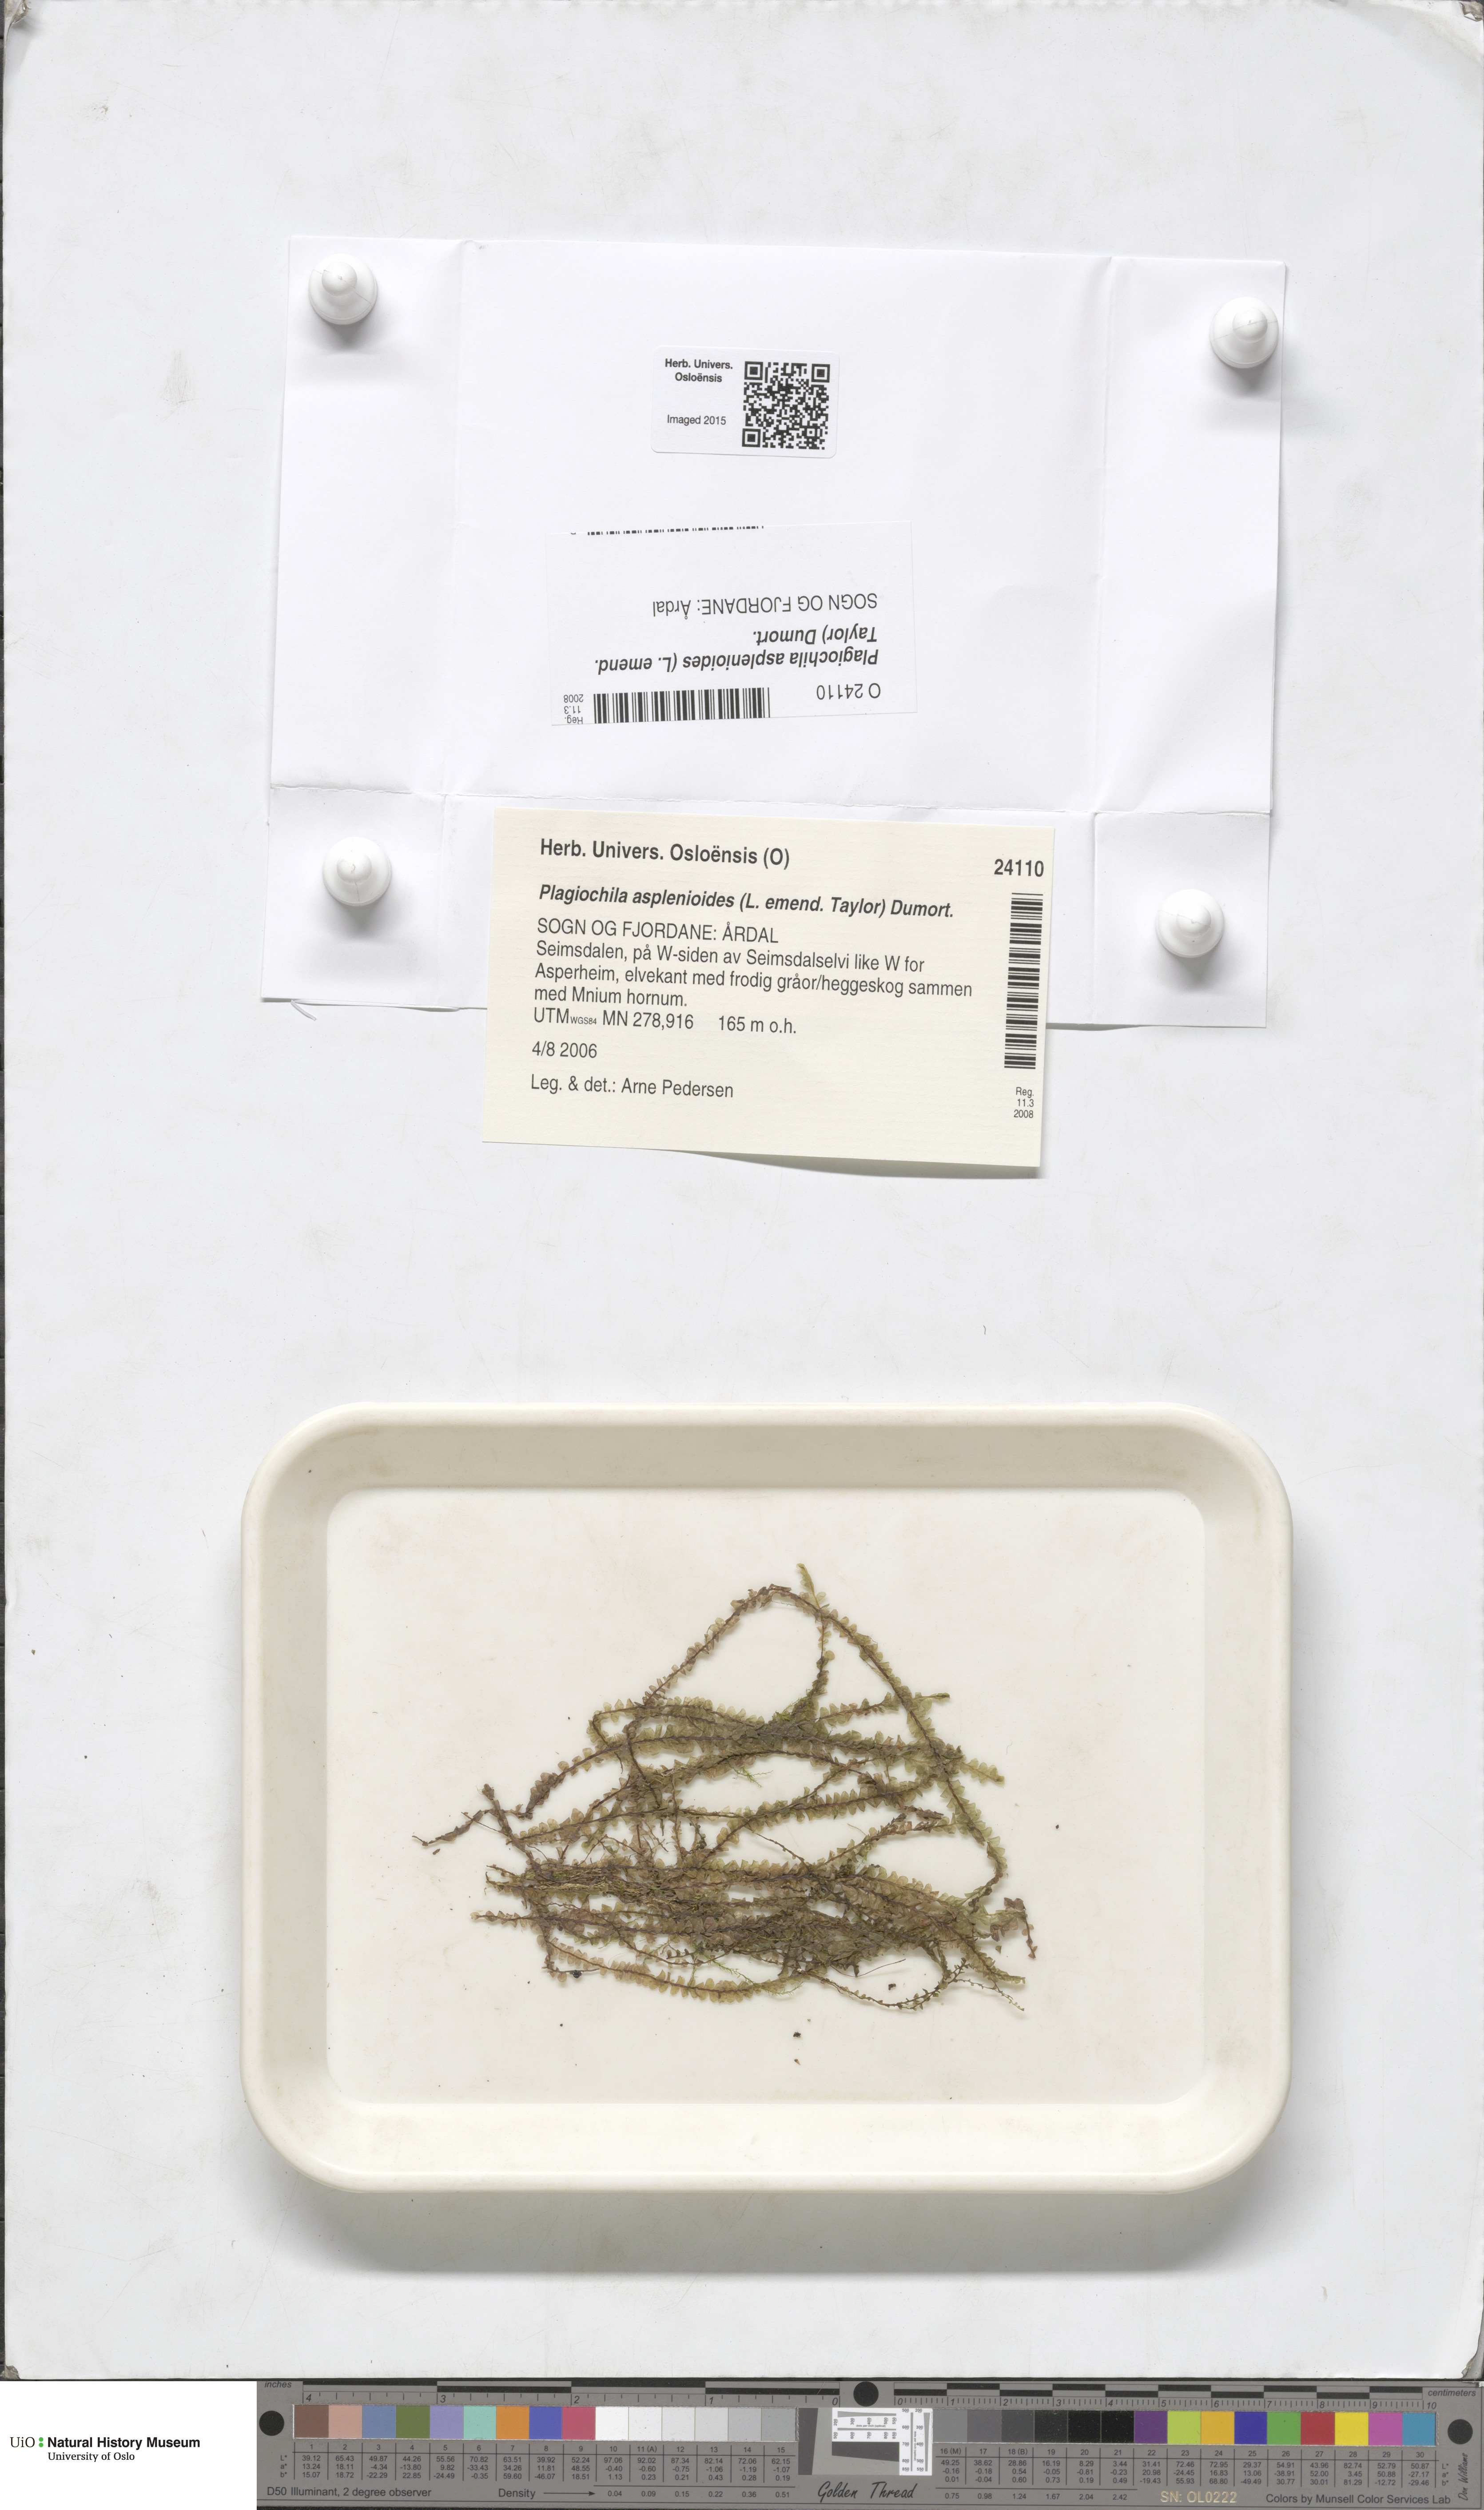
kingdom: Plantae
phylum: Marchantiophyta
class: Jungermanniopsida
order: Jungermanniales
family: Plagiochilaceae
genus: Plagiochila
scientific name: Plagiochila asplenioides
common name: Greater featherwort
